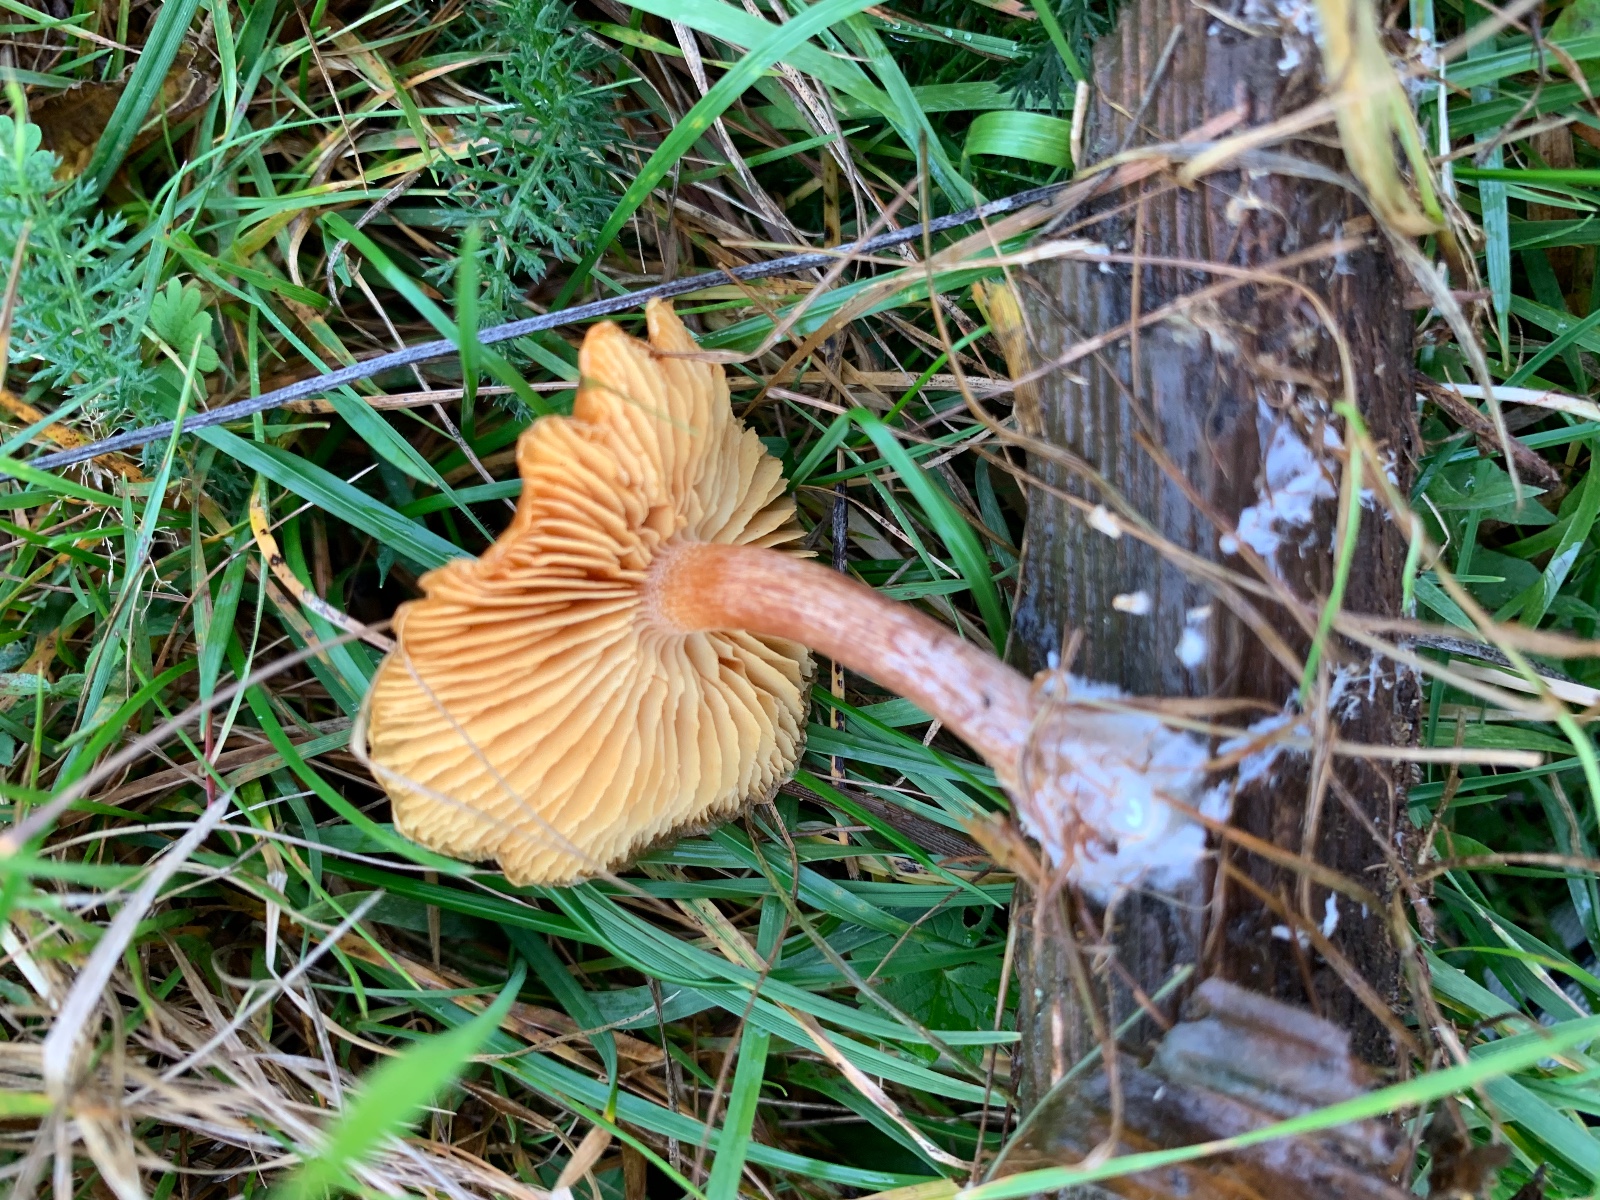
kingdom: Fungi
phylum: Basidiomycota
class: Agaricomycetes
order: Agaricales
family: Hymenogastraceae
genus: Gymnopilus
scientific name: Gymnopilus penetrans
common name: plettet flammehat
